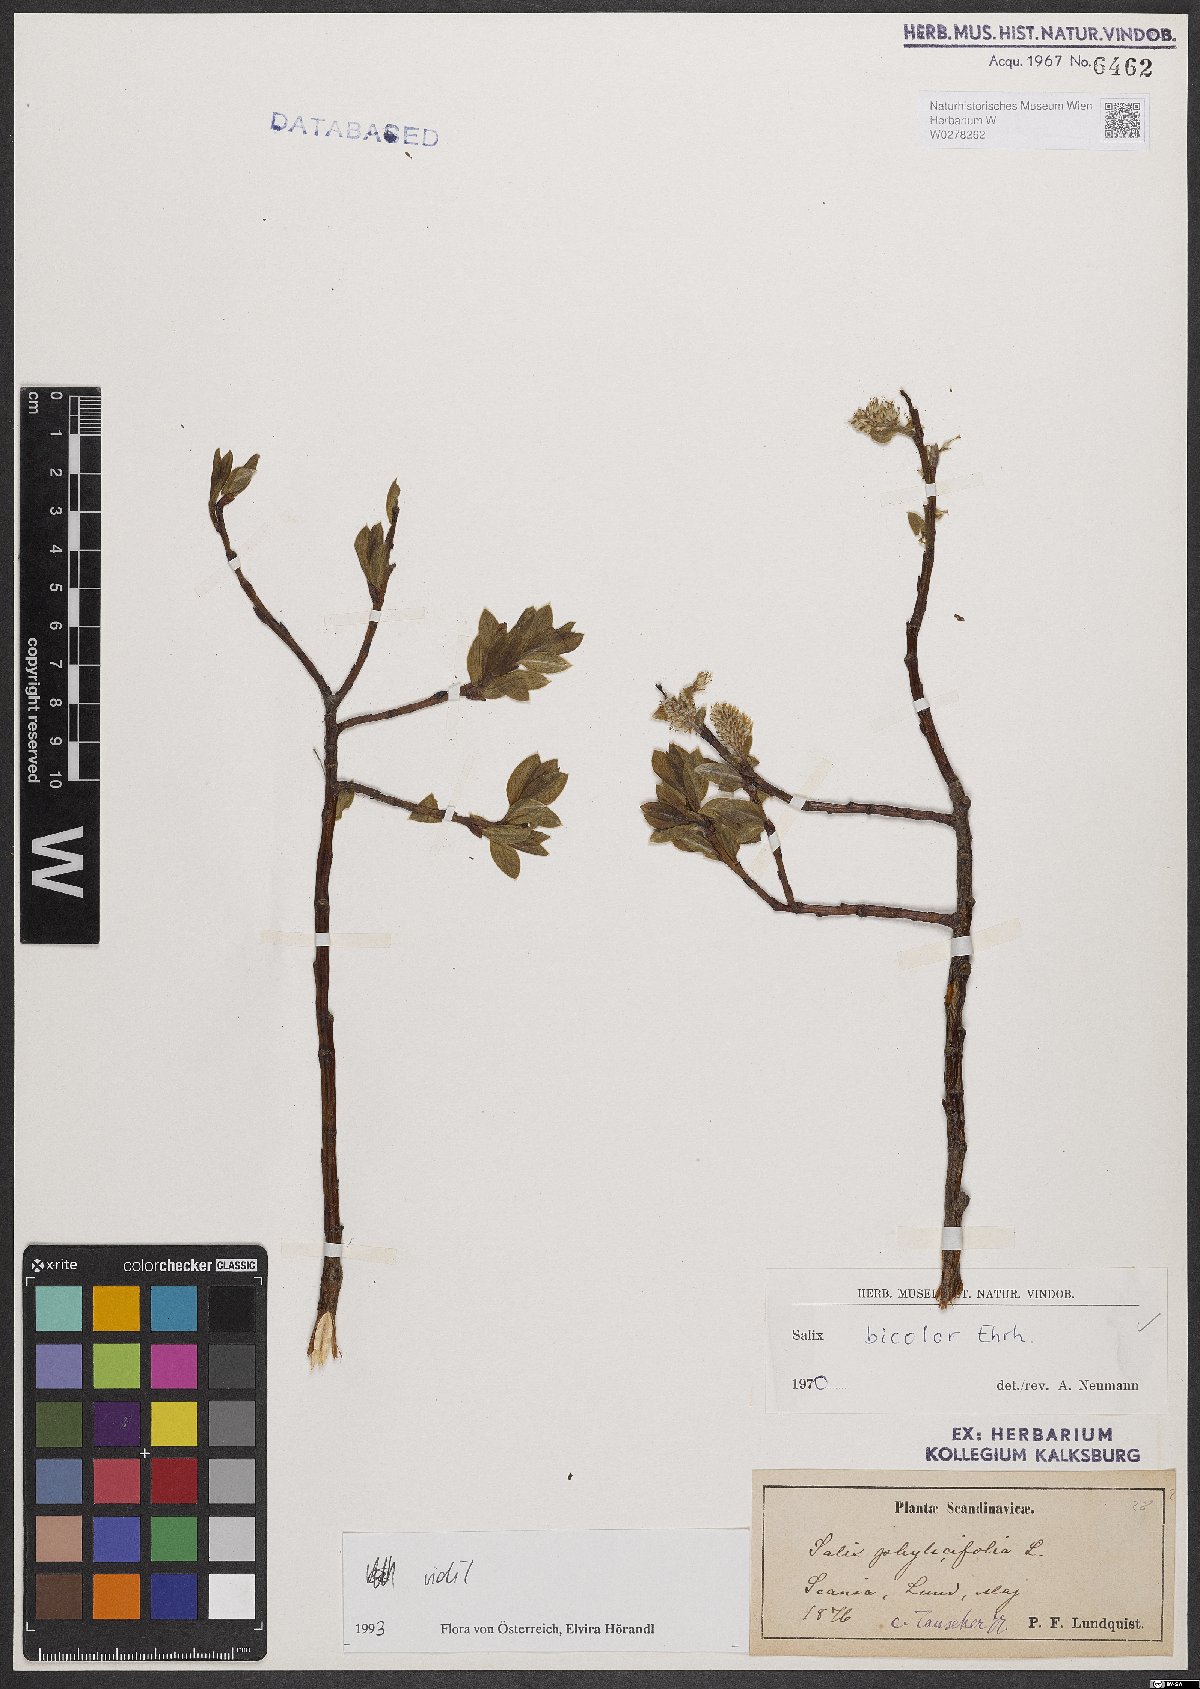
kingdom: Plantae
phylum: Tracheophyta
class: Magnoliopsida
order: Malpighiales
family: Salicaceae
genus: Salix
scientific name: Salix bicolor
